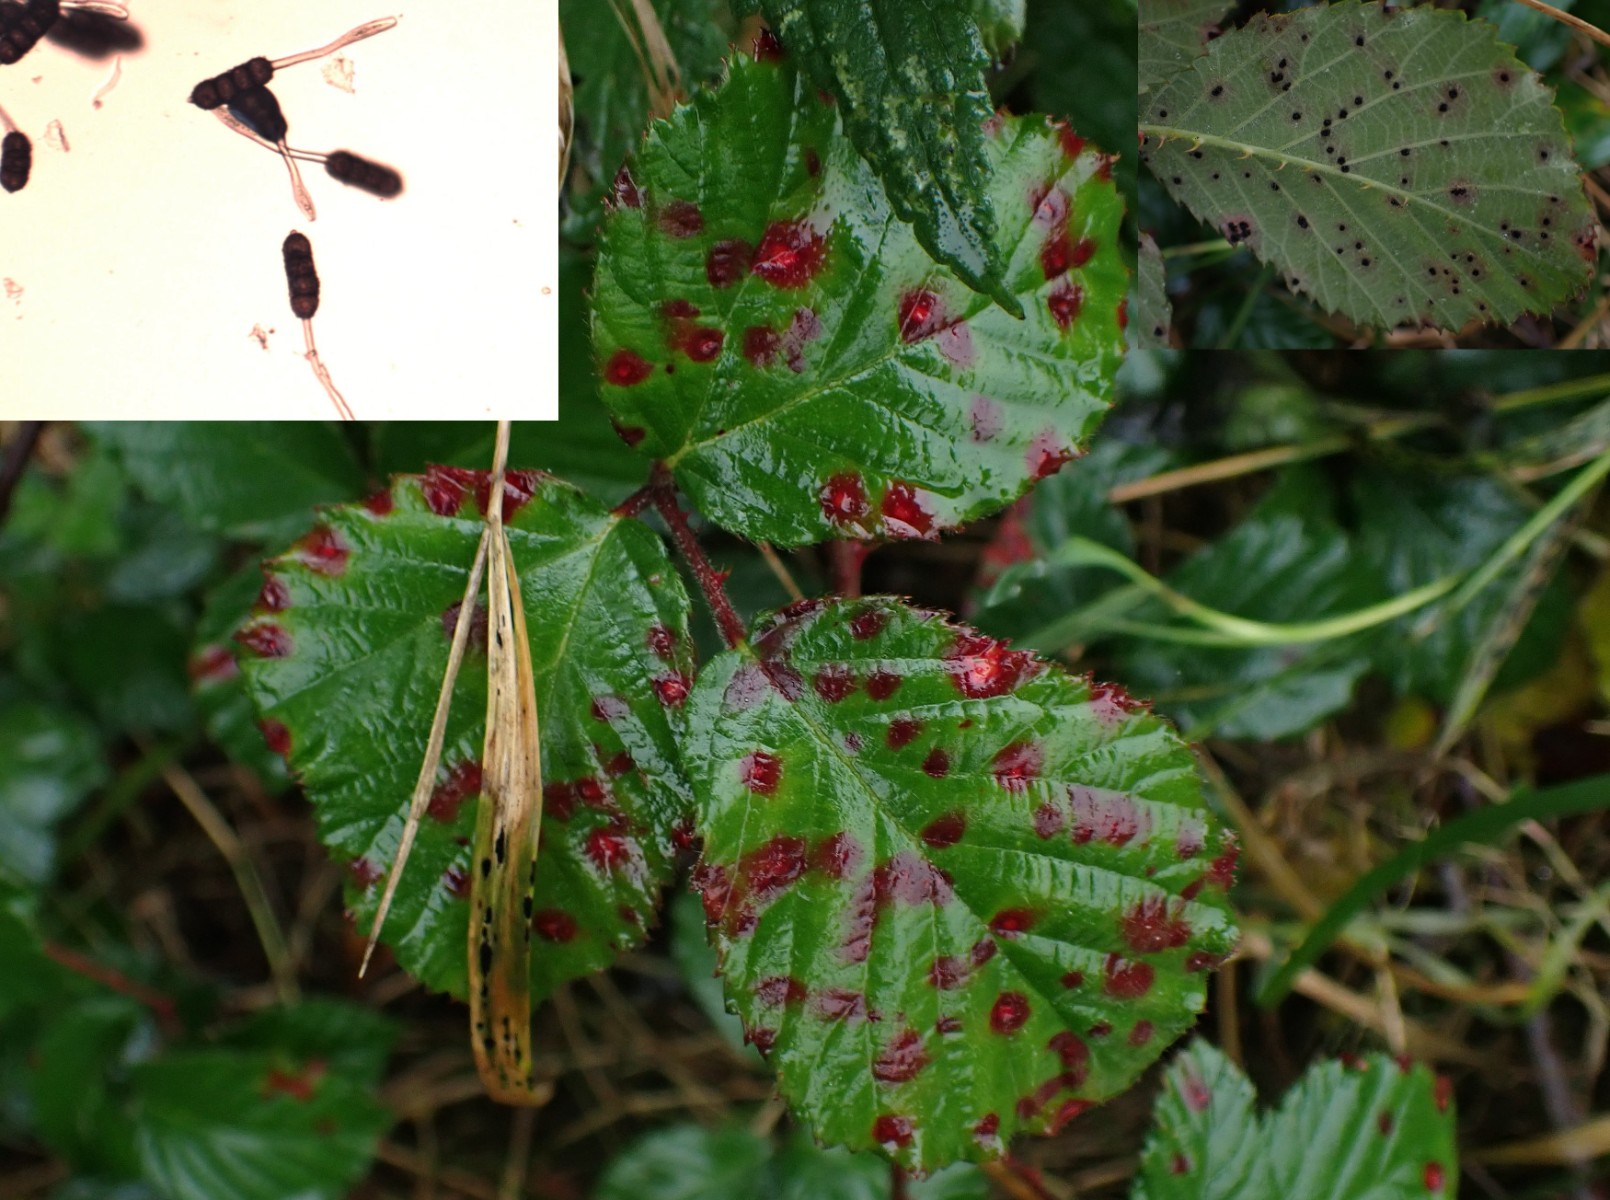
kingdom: Fungi
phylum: Basidiomycota
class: Pucciniomycetes
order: Pucciniales
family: Phragmidiaceae
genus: Phragmidium
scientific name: Phragmidium violaceum
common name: violet flercellerust
